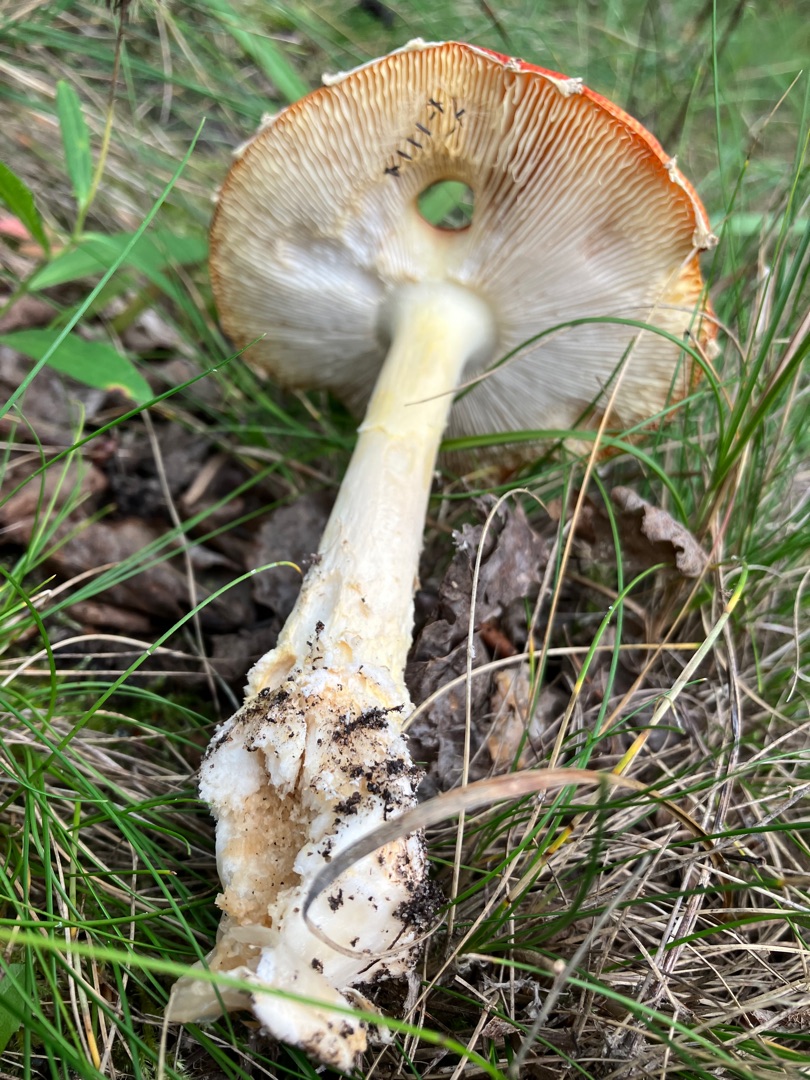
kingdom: Fungi
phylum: Basidiomycota
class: Agaricomycetes
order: Agaricales
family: Amanitaceae
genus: Amanita
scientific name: Amanita muscaria
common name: Rød fluesvamp
